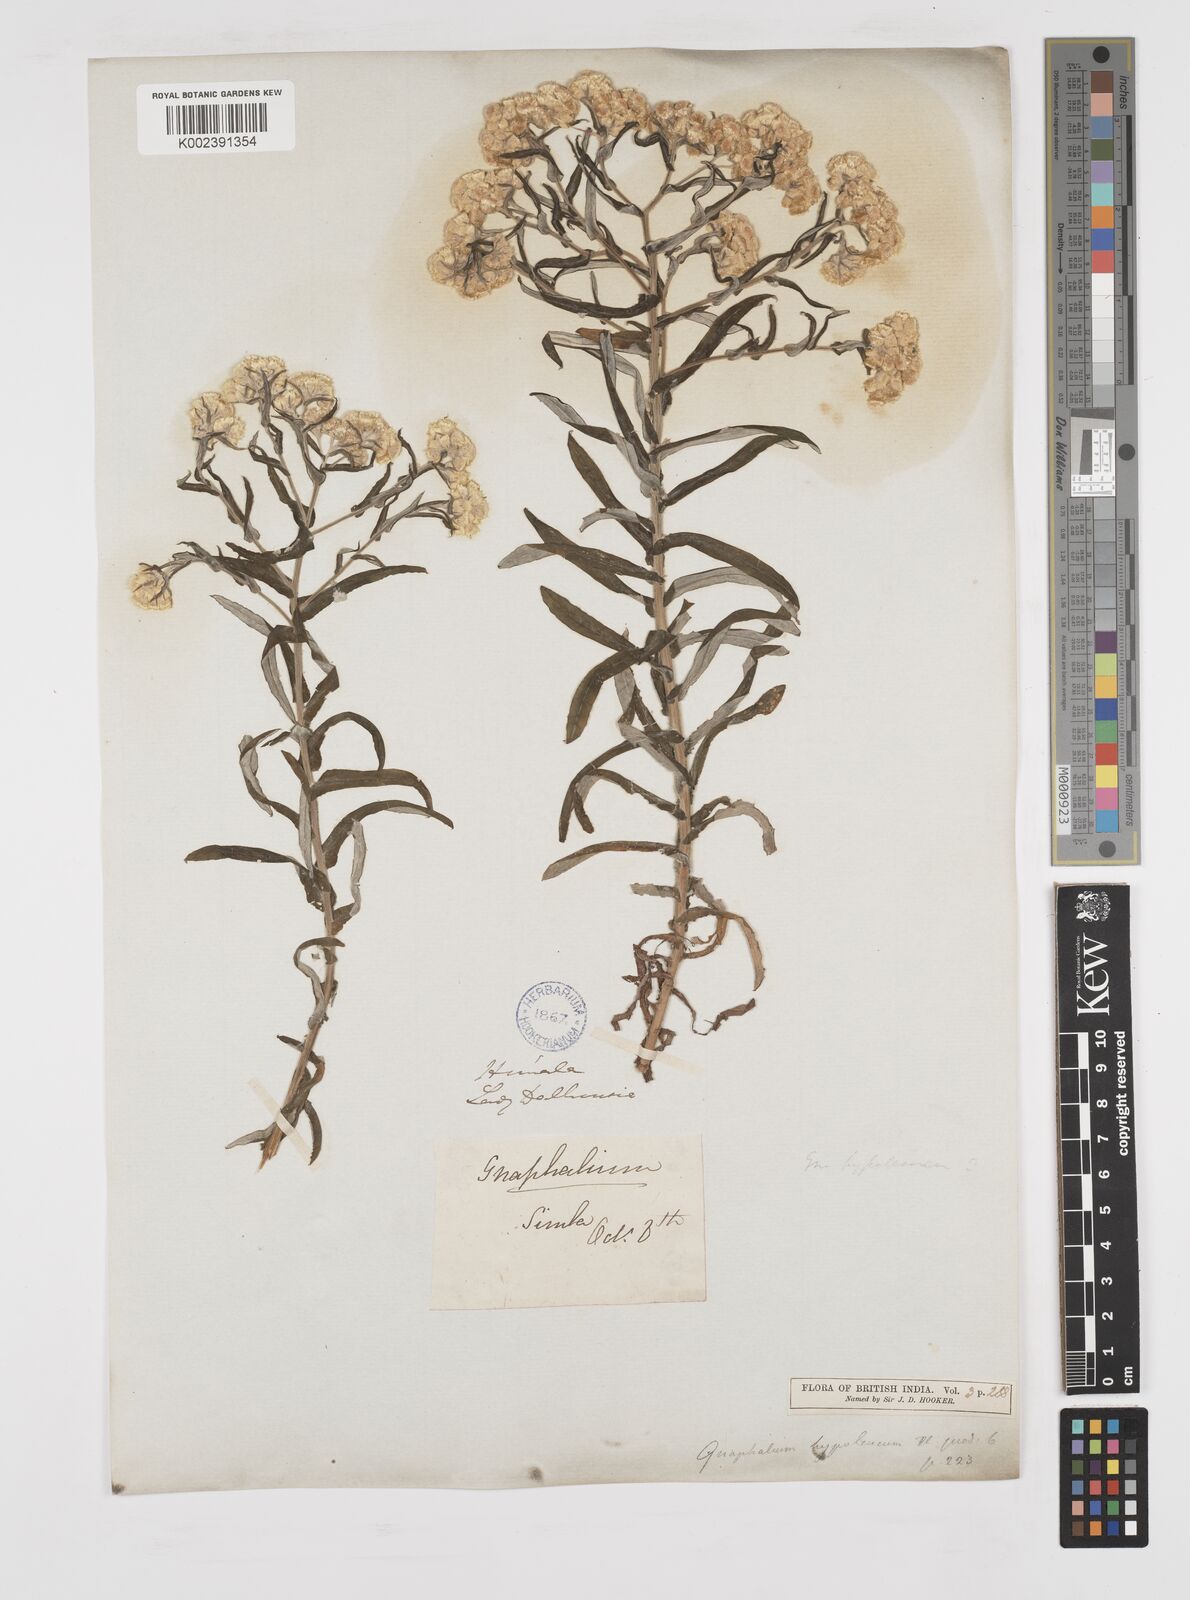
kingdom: Plantae
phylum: Tracheophyta
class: Magnoliopsida
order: Asterales
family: Asteraceae
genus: Pseudognaphalium
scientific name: Pseudognaphalium hypoleucum
